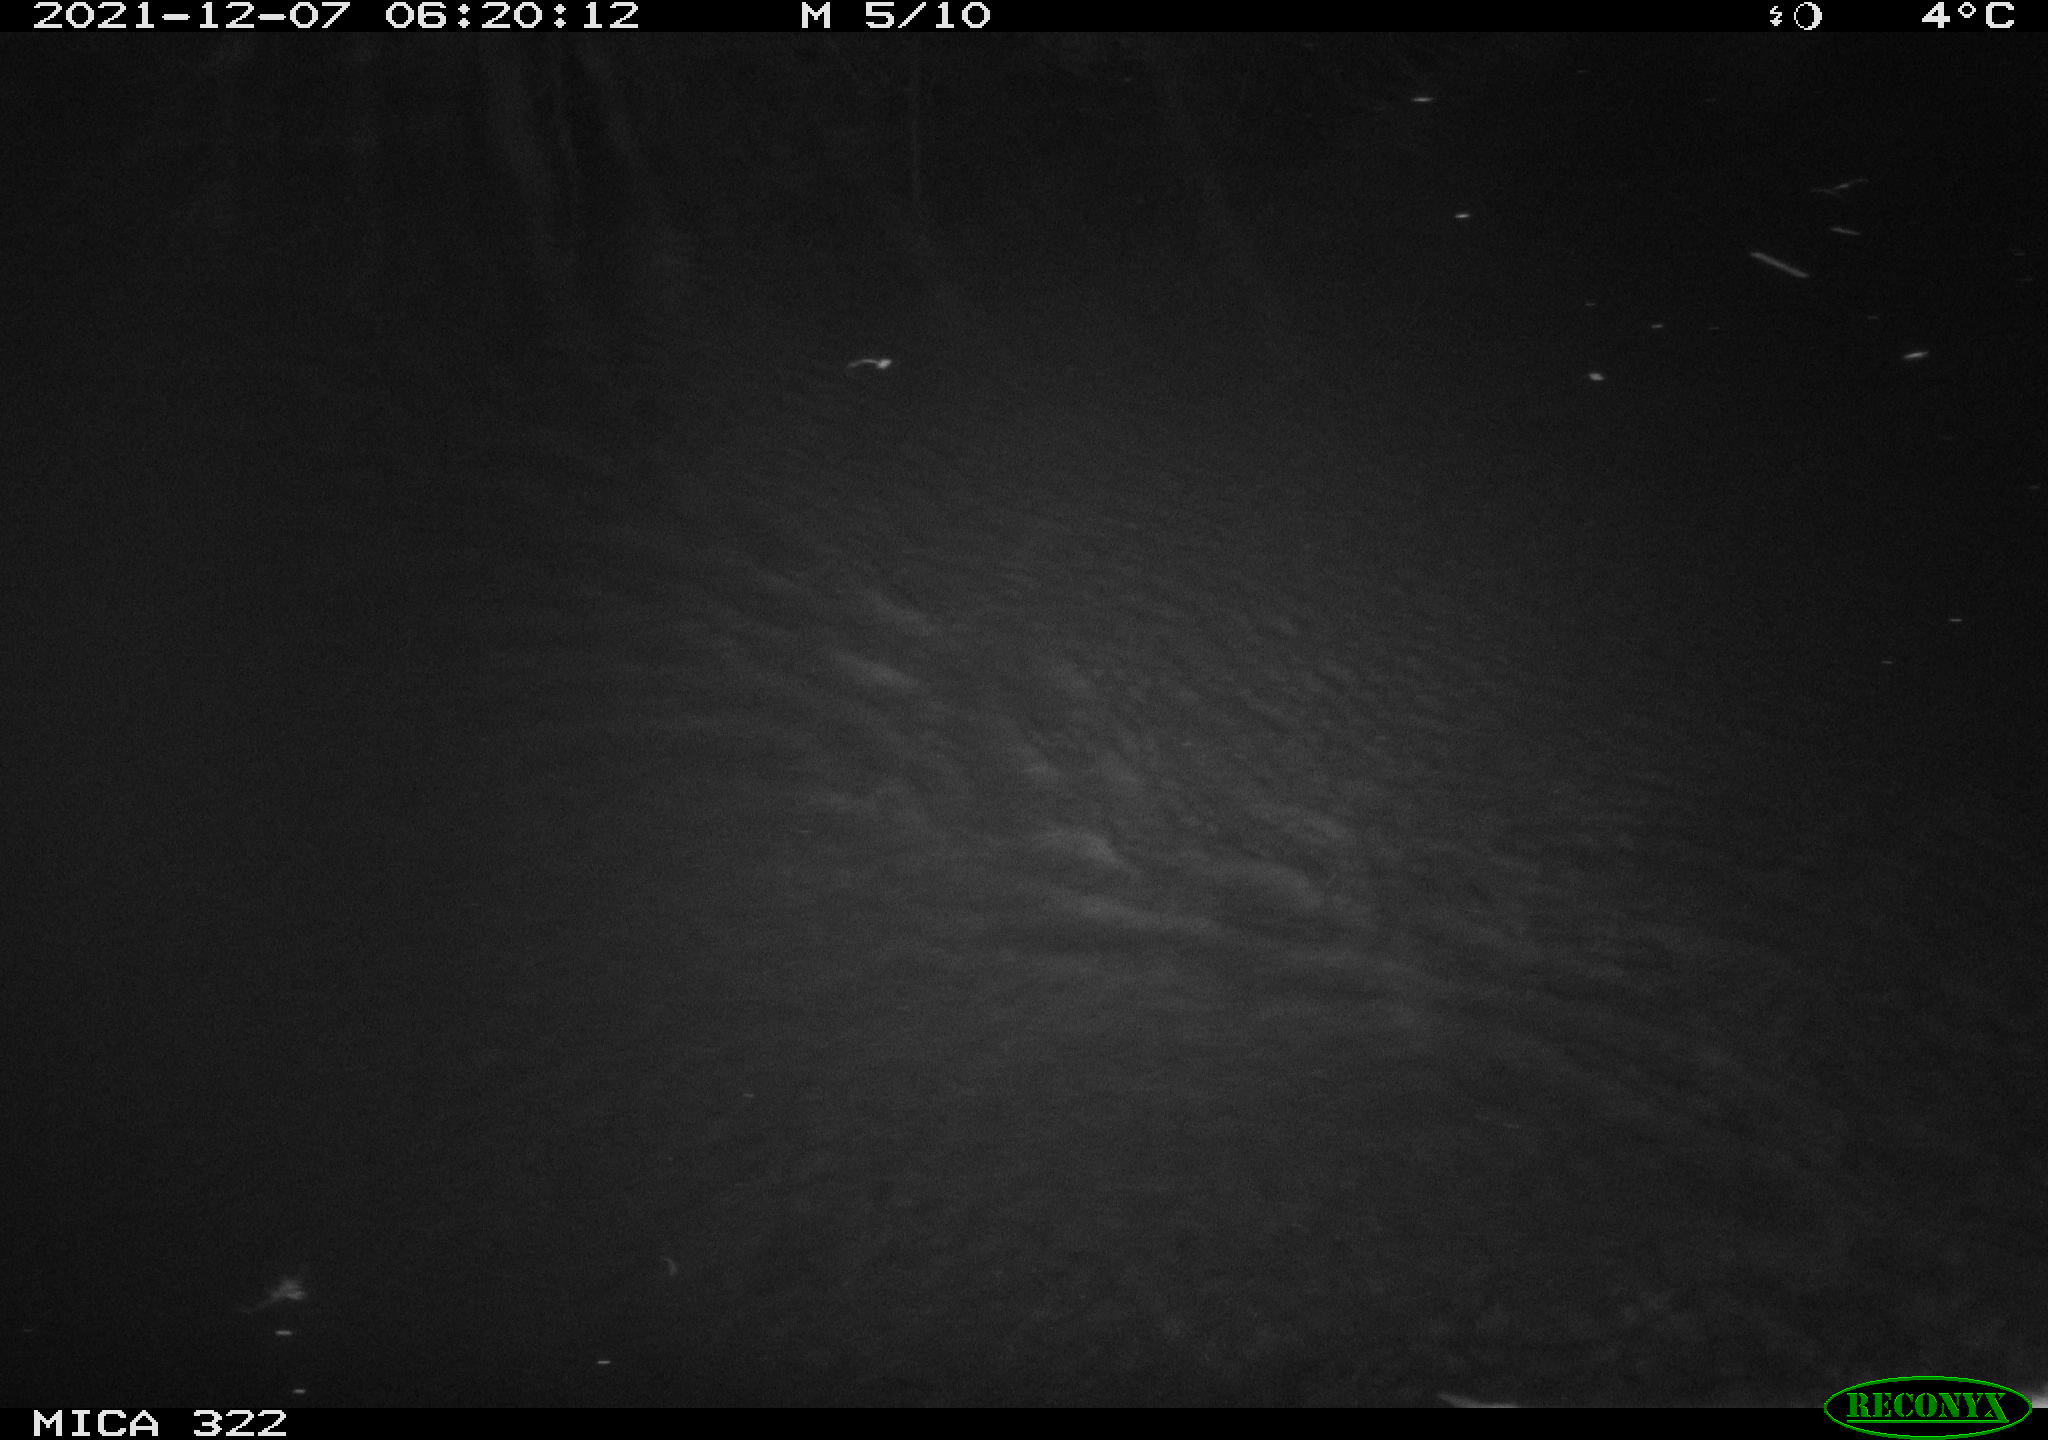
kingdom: Animalia
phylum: Chordata
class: Mammalia
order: Rodentia
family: Muridae
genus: Rattus
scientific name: Rattus norvegicus
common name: Brown rat
